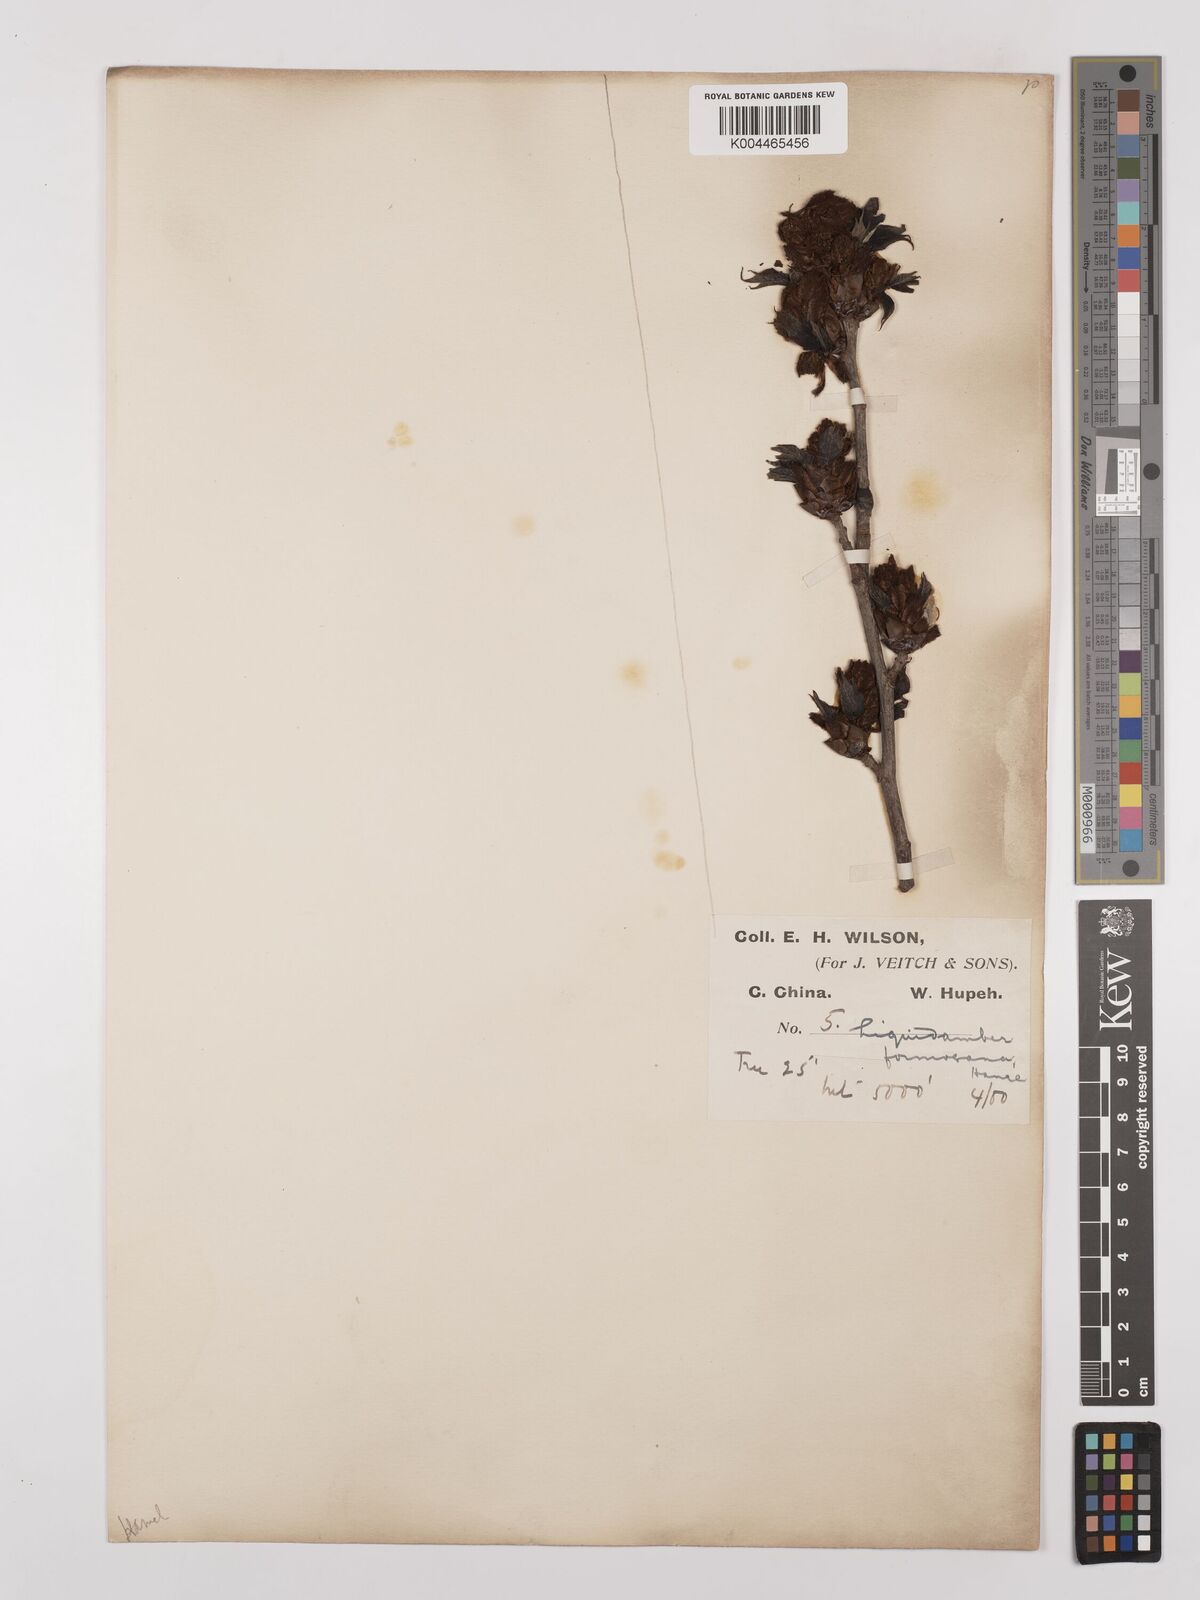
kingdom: Plantae
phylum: Tracheophyta
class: Magnoliopsida
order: Saxifragales
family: Altingiaceae
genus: Liquidambar
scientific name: Liquidambar formosana
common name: Chinese sweet gum
